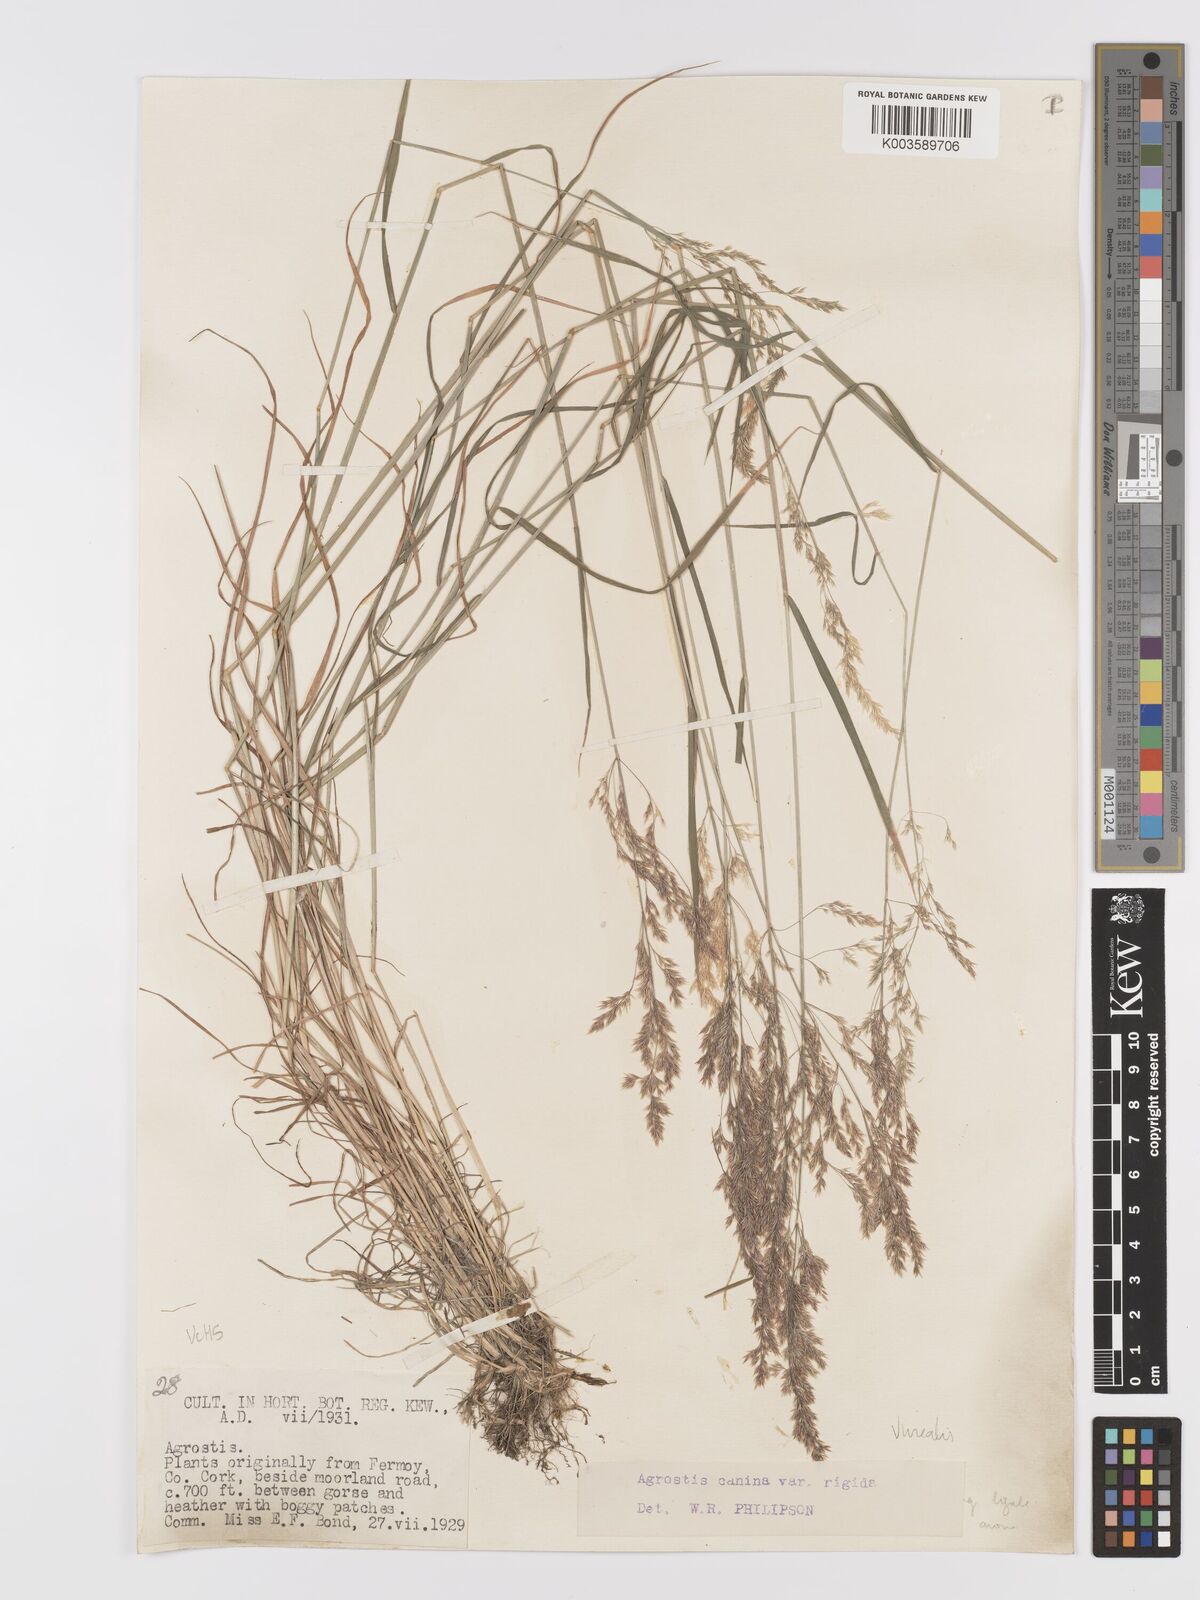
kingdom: Plantae
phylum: Tracheophyta
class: Liliopsida
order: Poales
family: Poaceae
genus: Agrostis
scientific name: Agrostis
